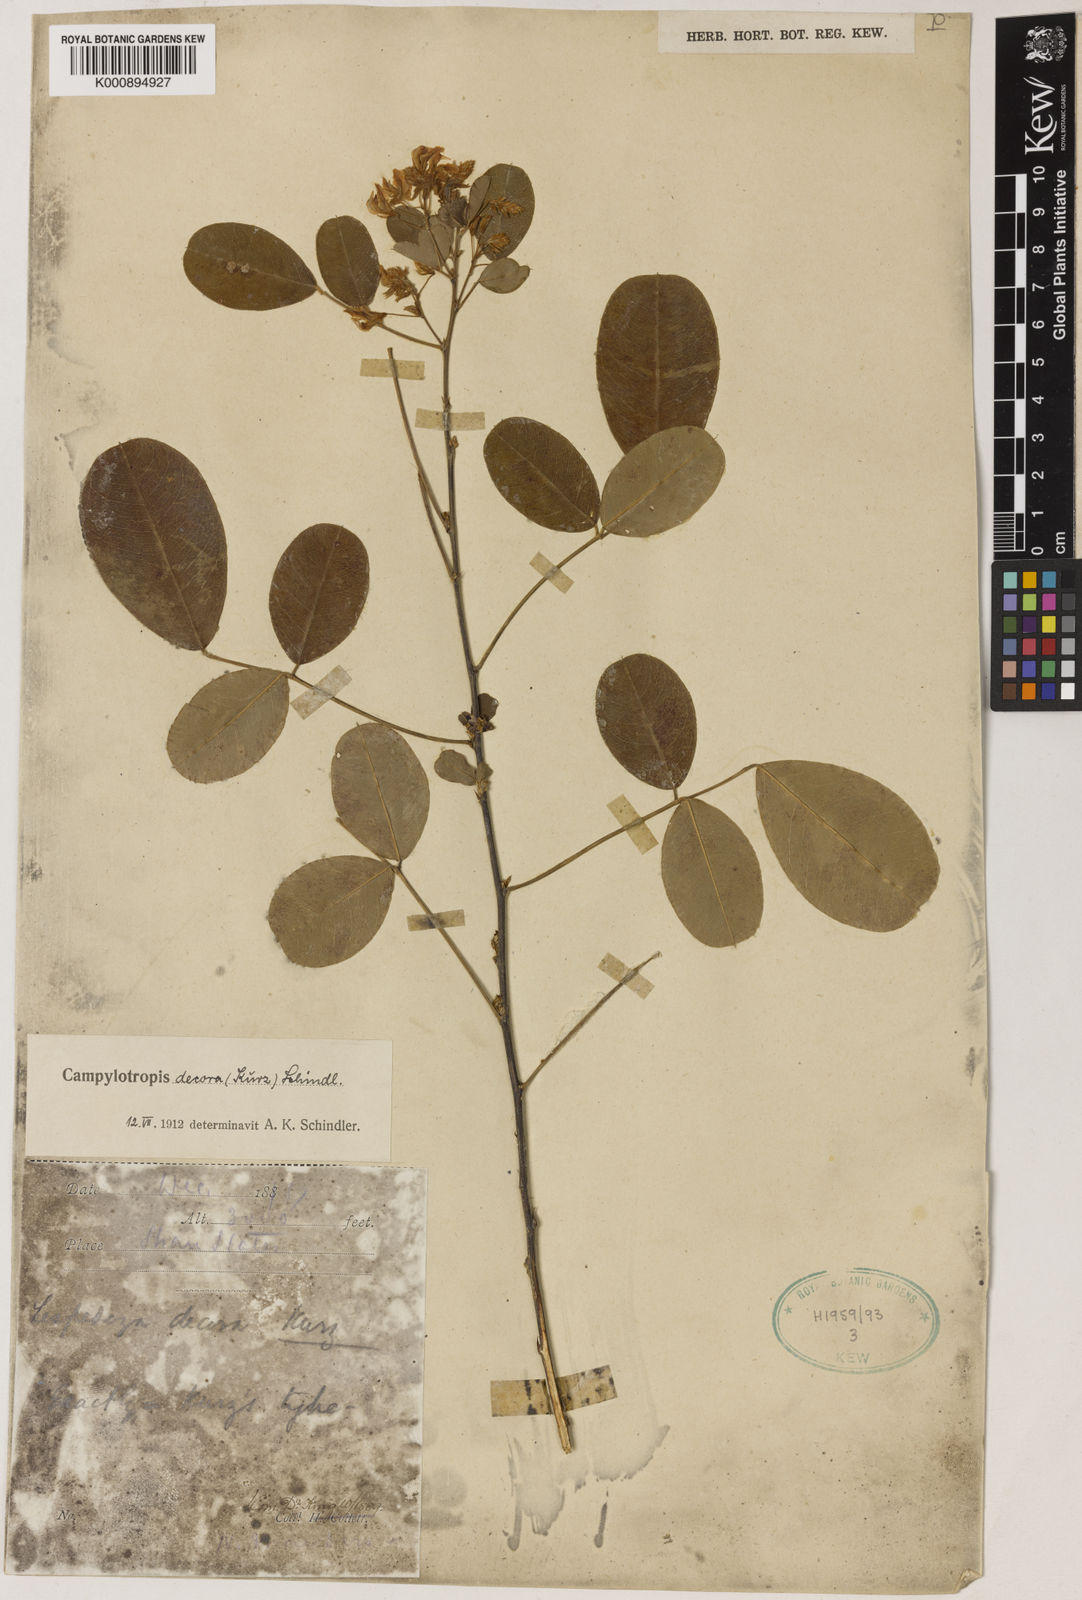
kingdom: Plantae
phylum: Tracheophyta
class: Magnoliopsida
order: Fabales
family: Fabaceae
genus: Campylotropis
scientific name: Campylotropis decora
